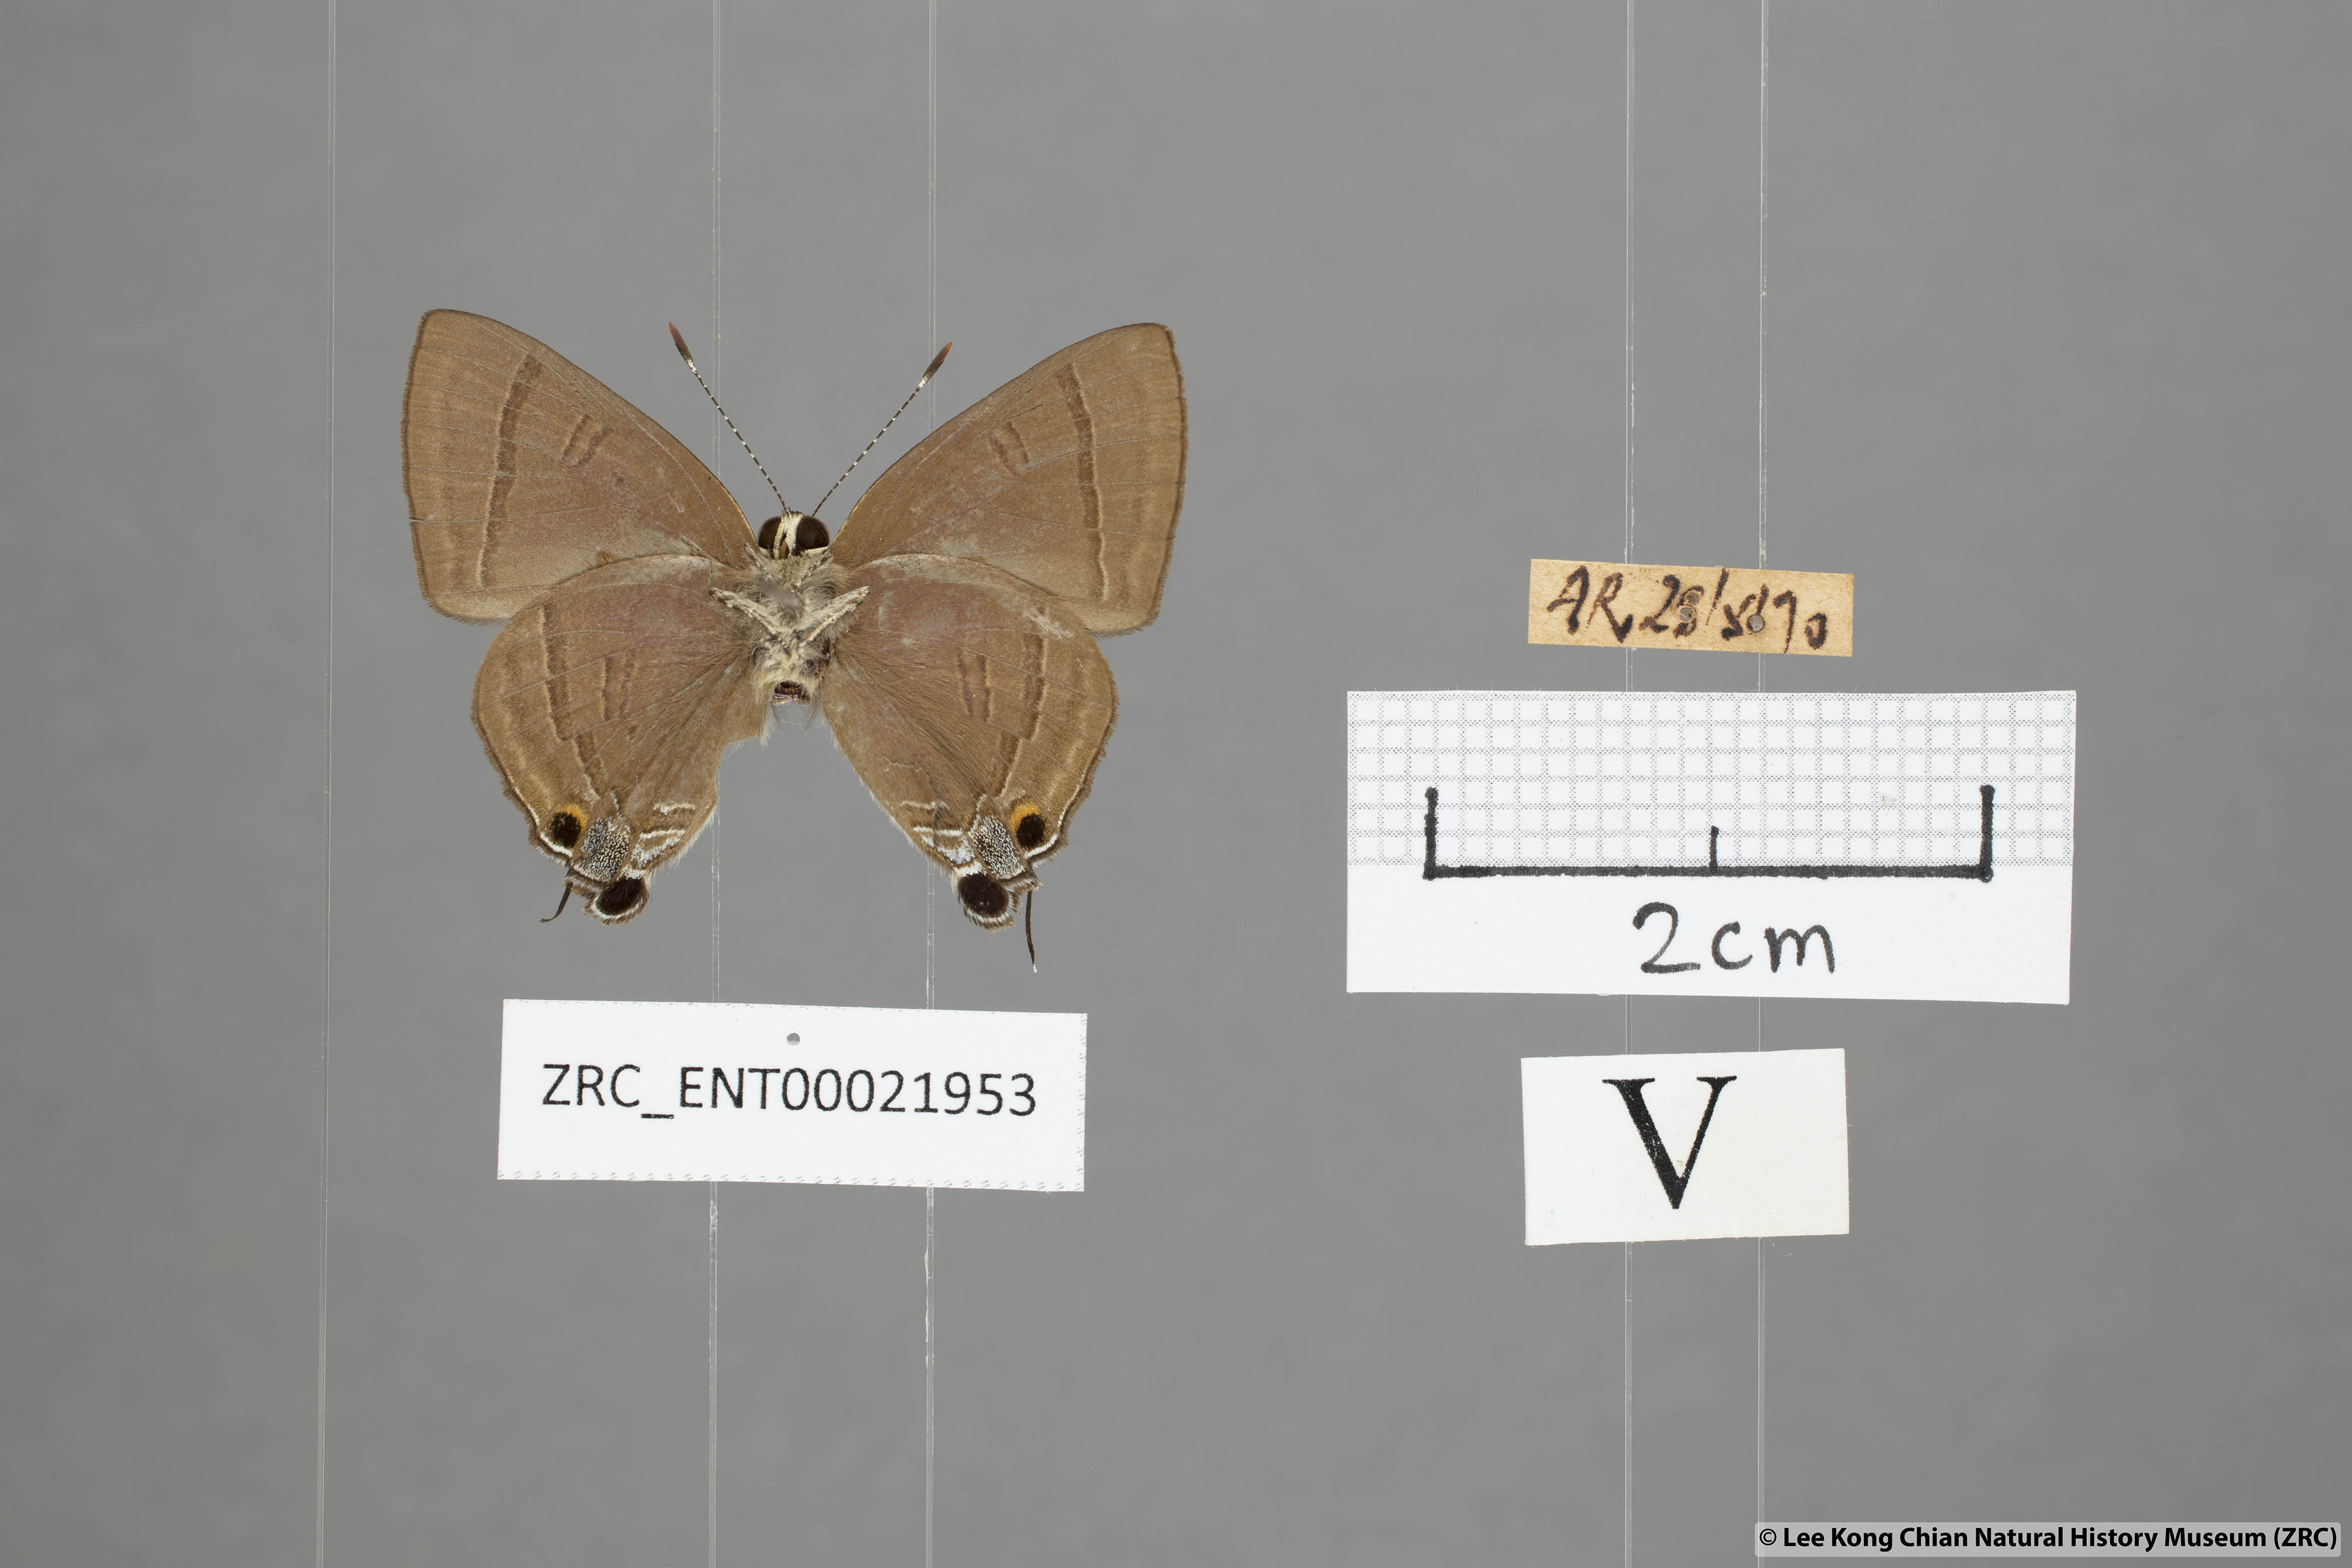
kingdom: Animalia
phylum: Arthropoda
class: Insecta
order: Lepidoptera
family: Lycaenidae
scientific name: Lycaenidae
